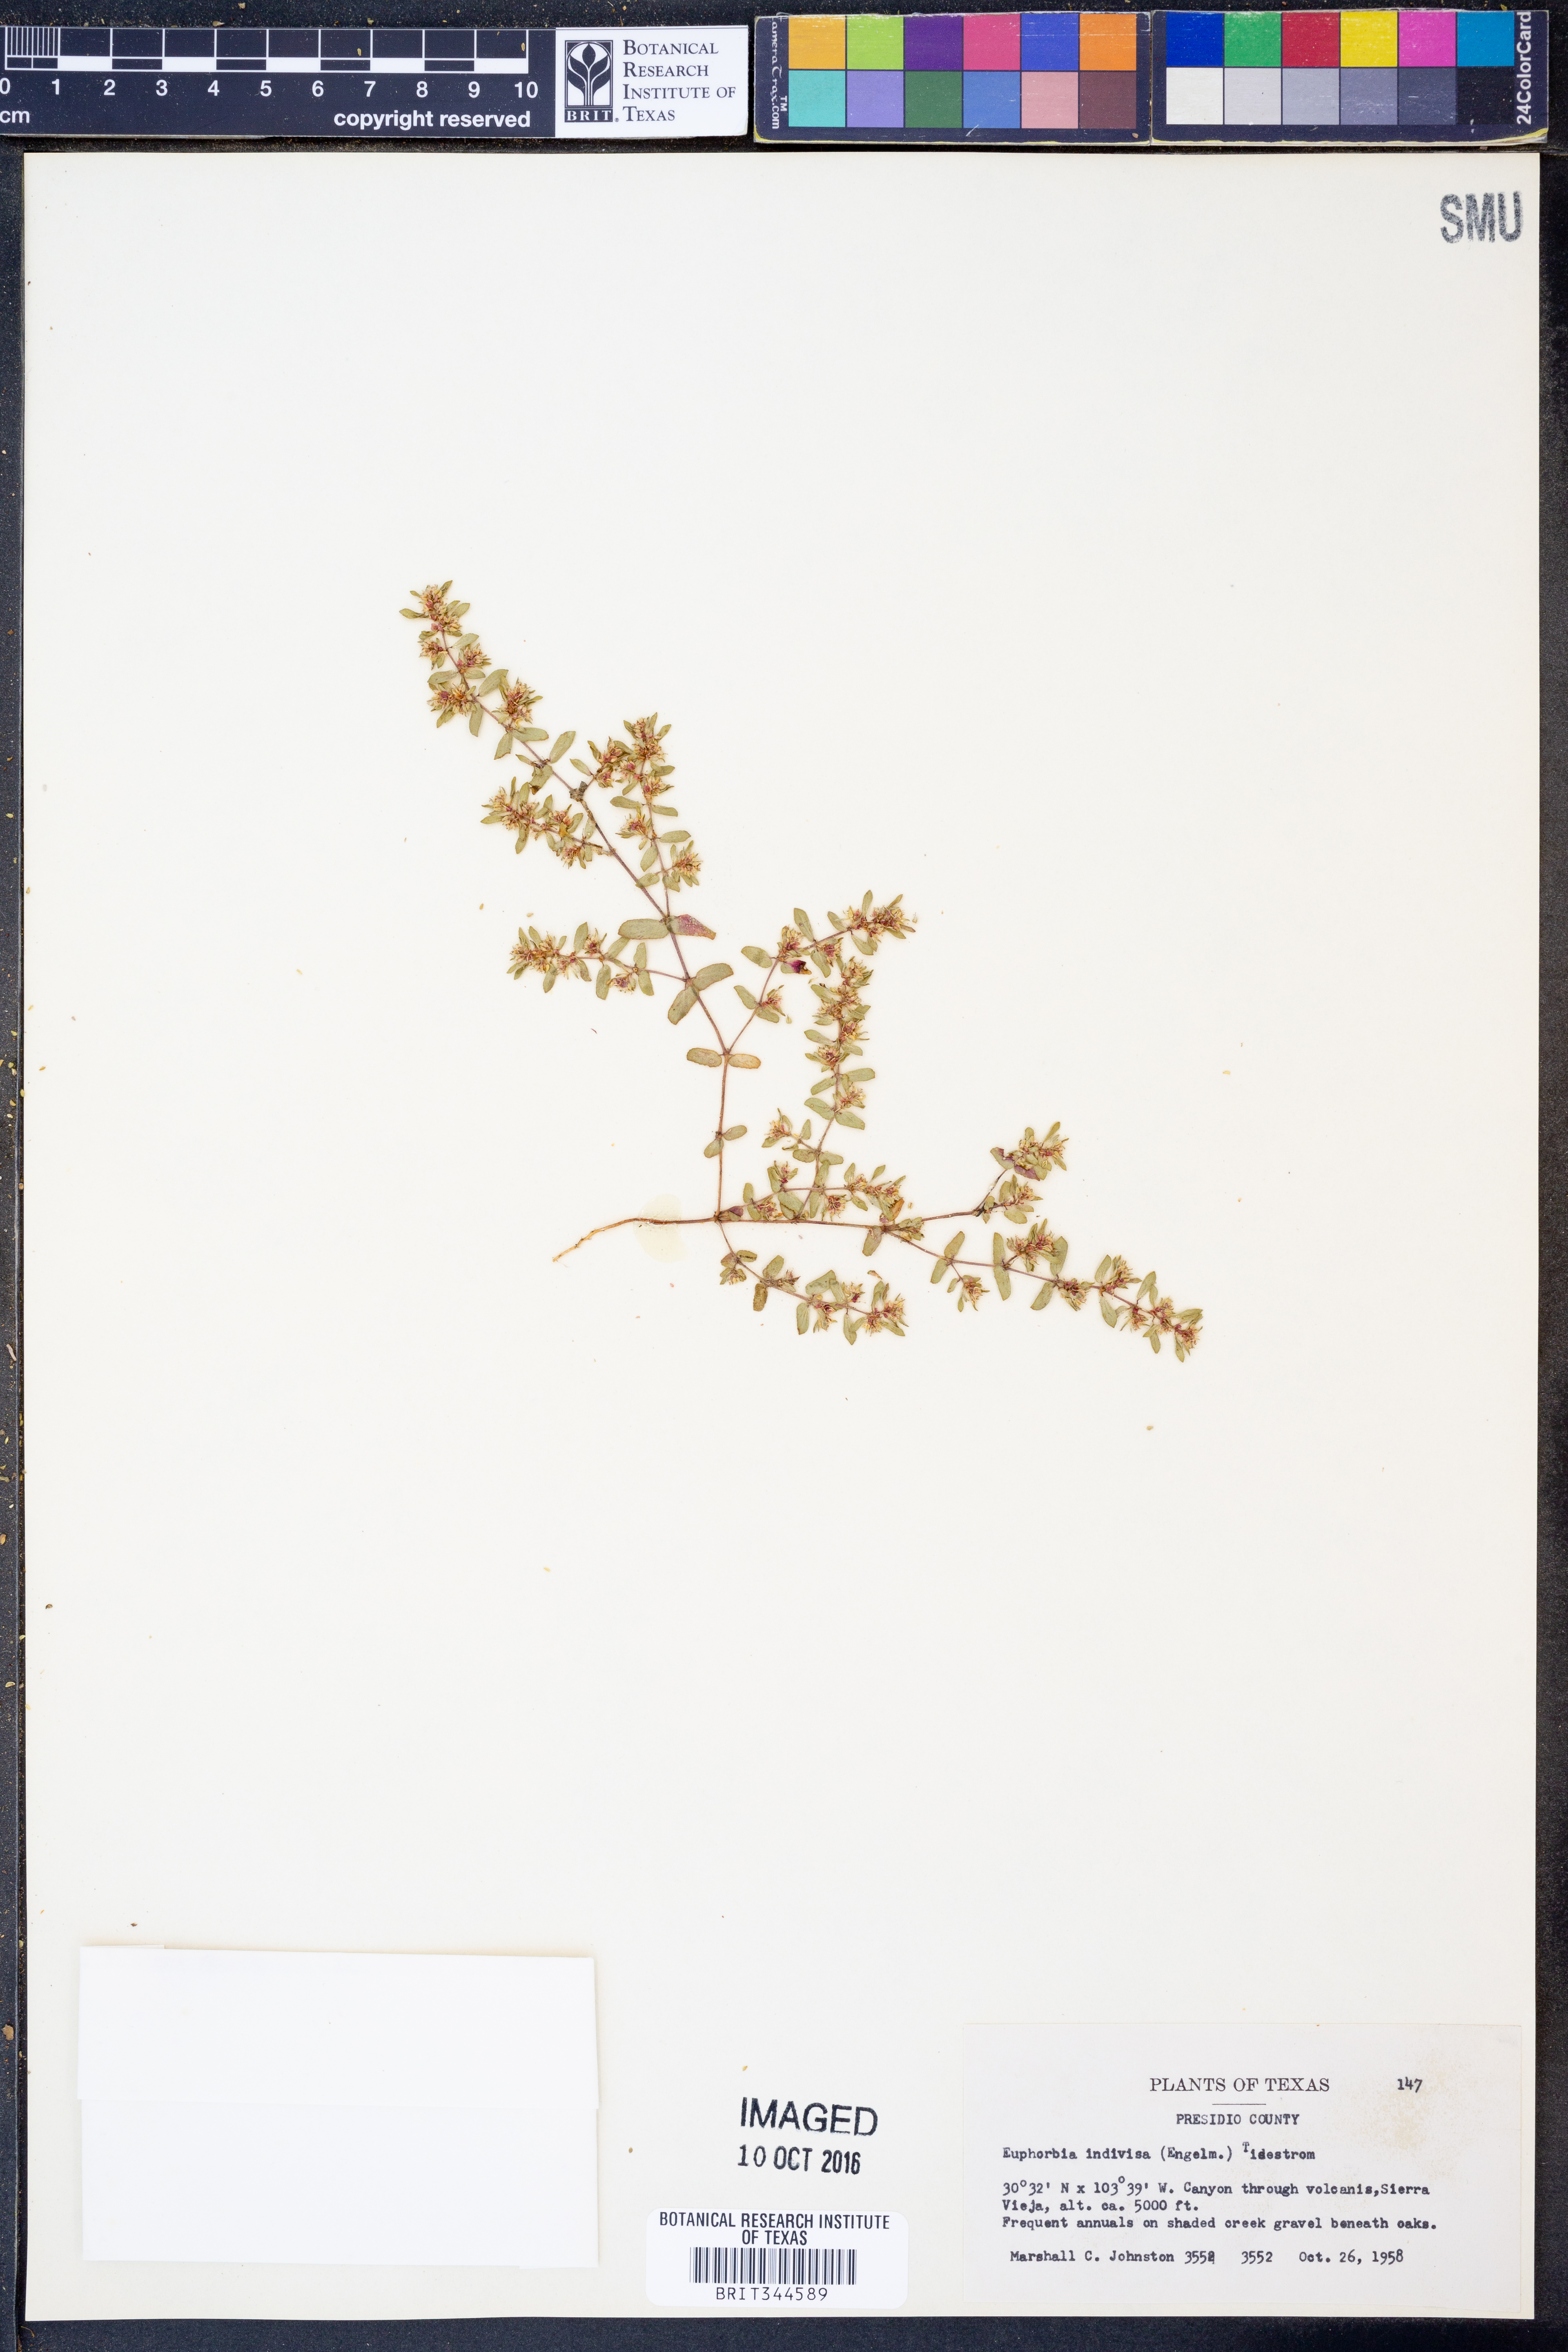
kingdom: Plantae
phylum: Tracheophyta
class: Magnoliopsida
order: Malpighiales
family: Euphorbiaceae
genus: Euphorbia
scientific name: Euphorbia indivisa
